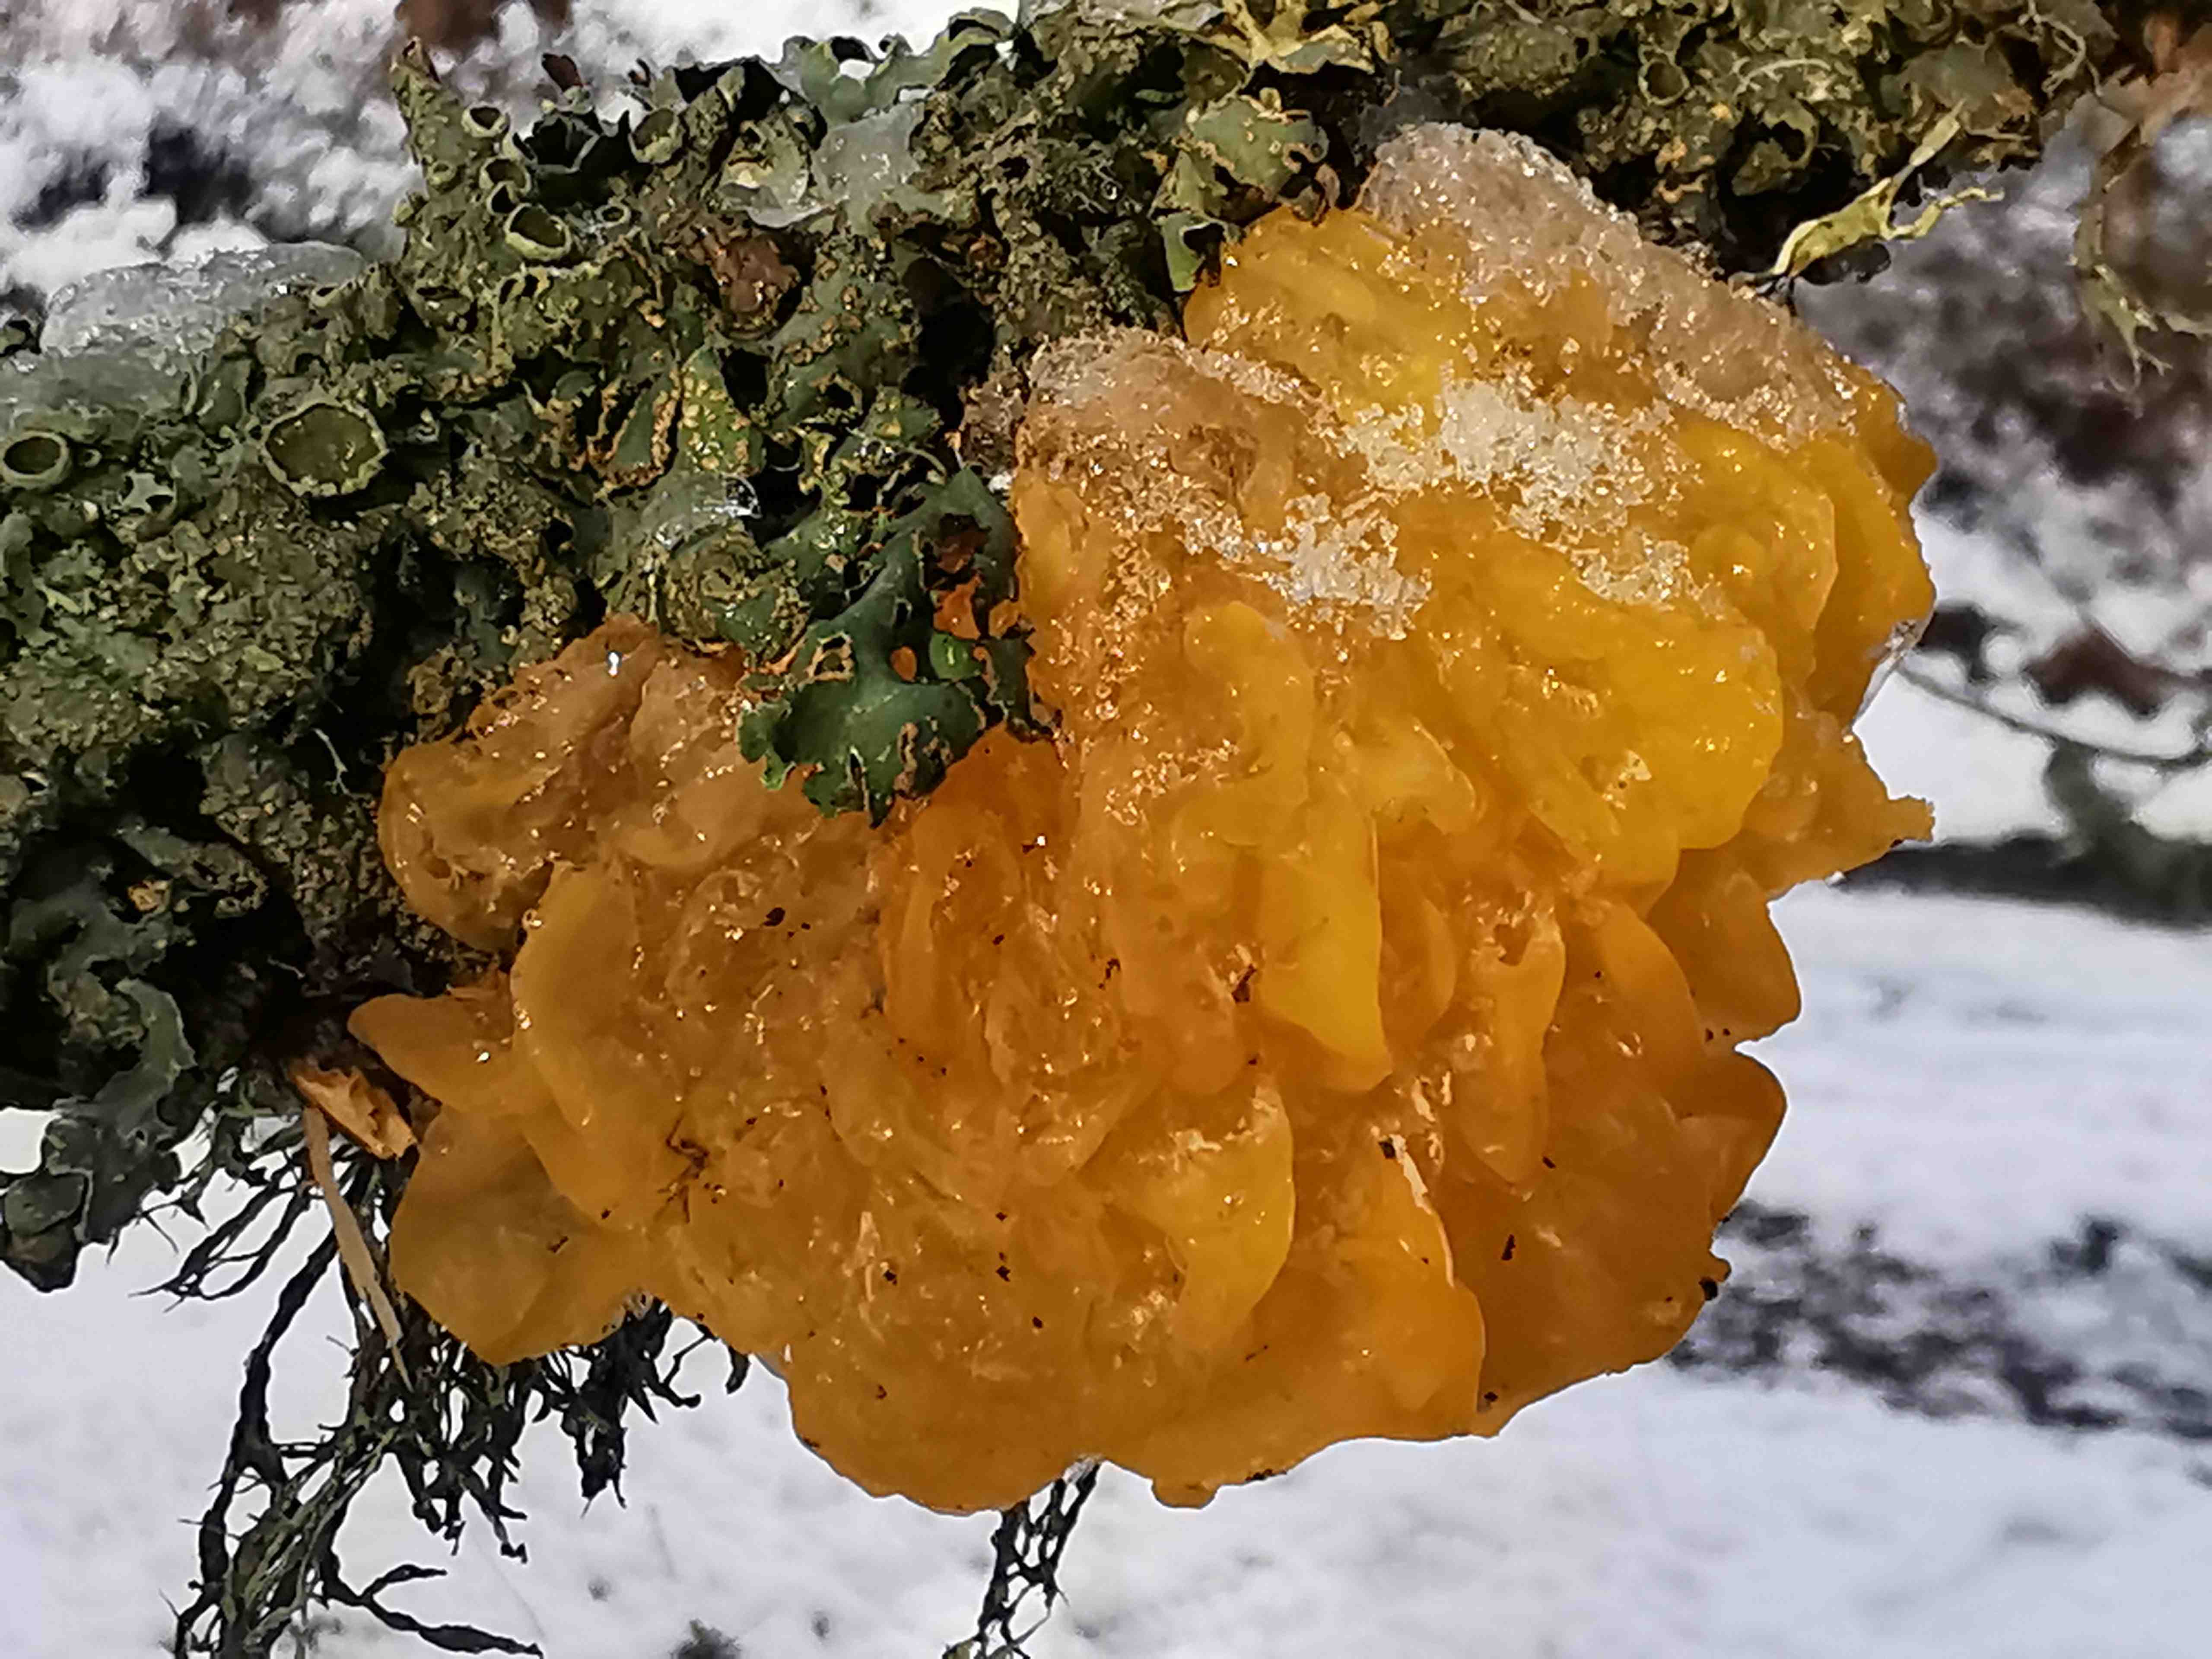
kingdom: Fungi
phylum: Basidiomycota
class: Tremellomycetes
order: Tremellales
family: Tremellaceae
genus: Tremella
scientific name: Tremella mesenterica
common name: gul bævresvamp
